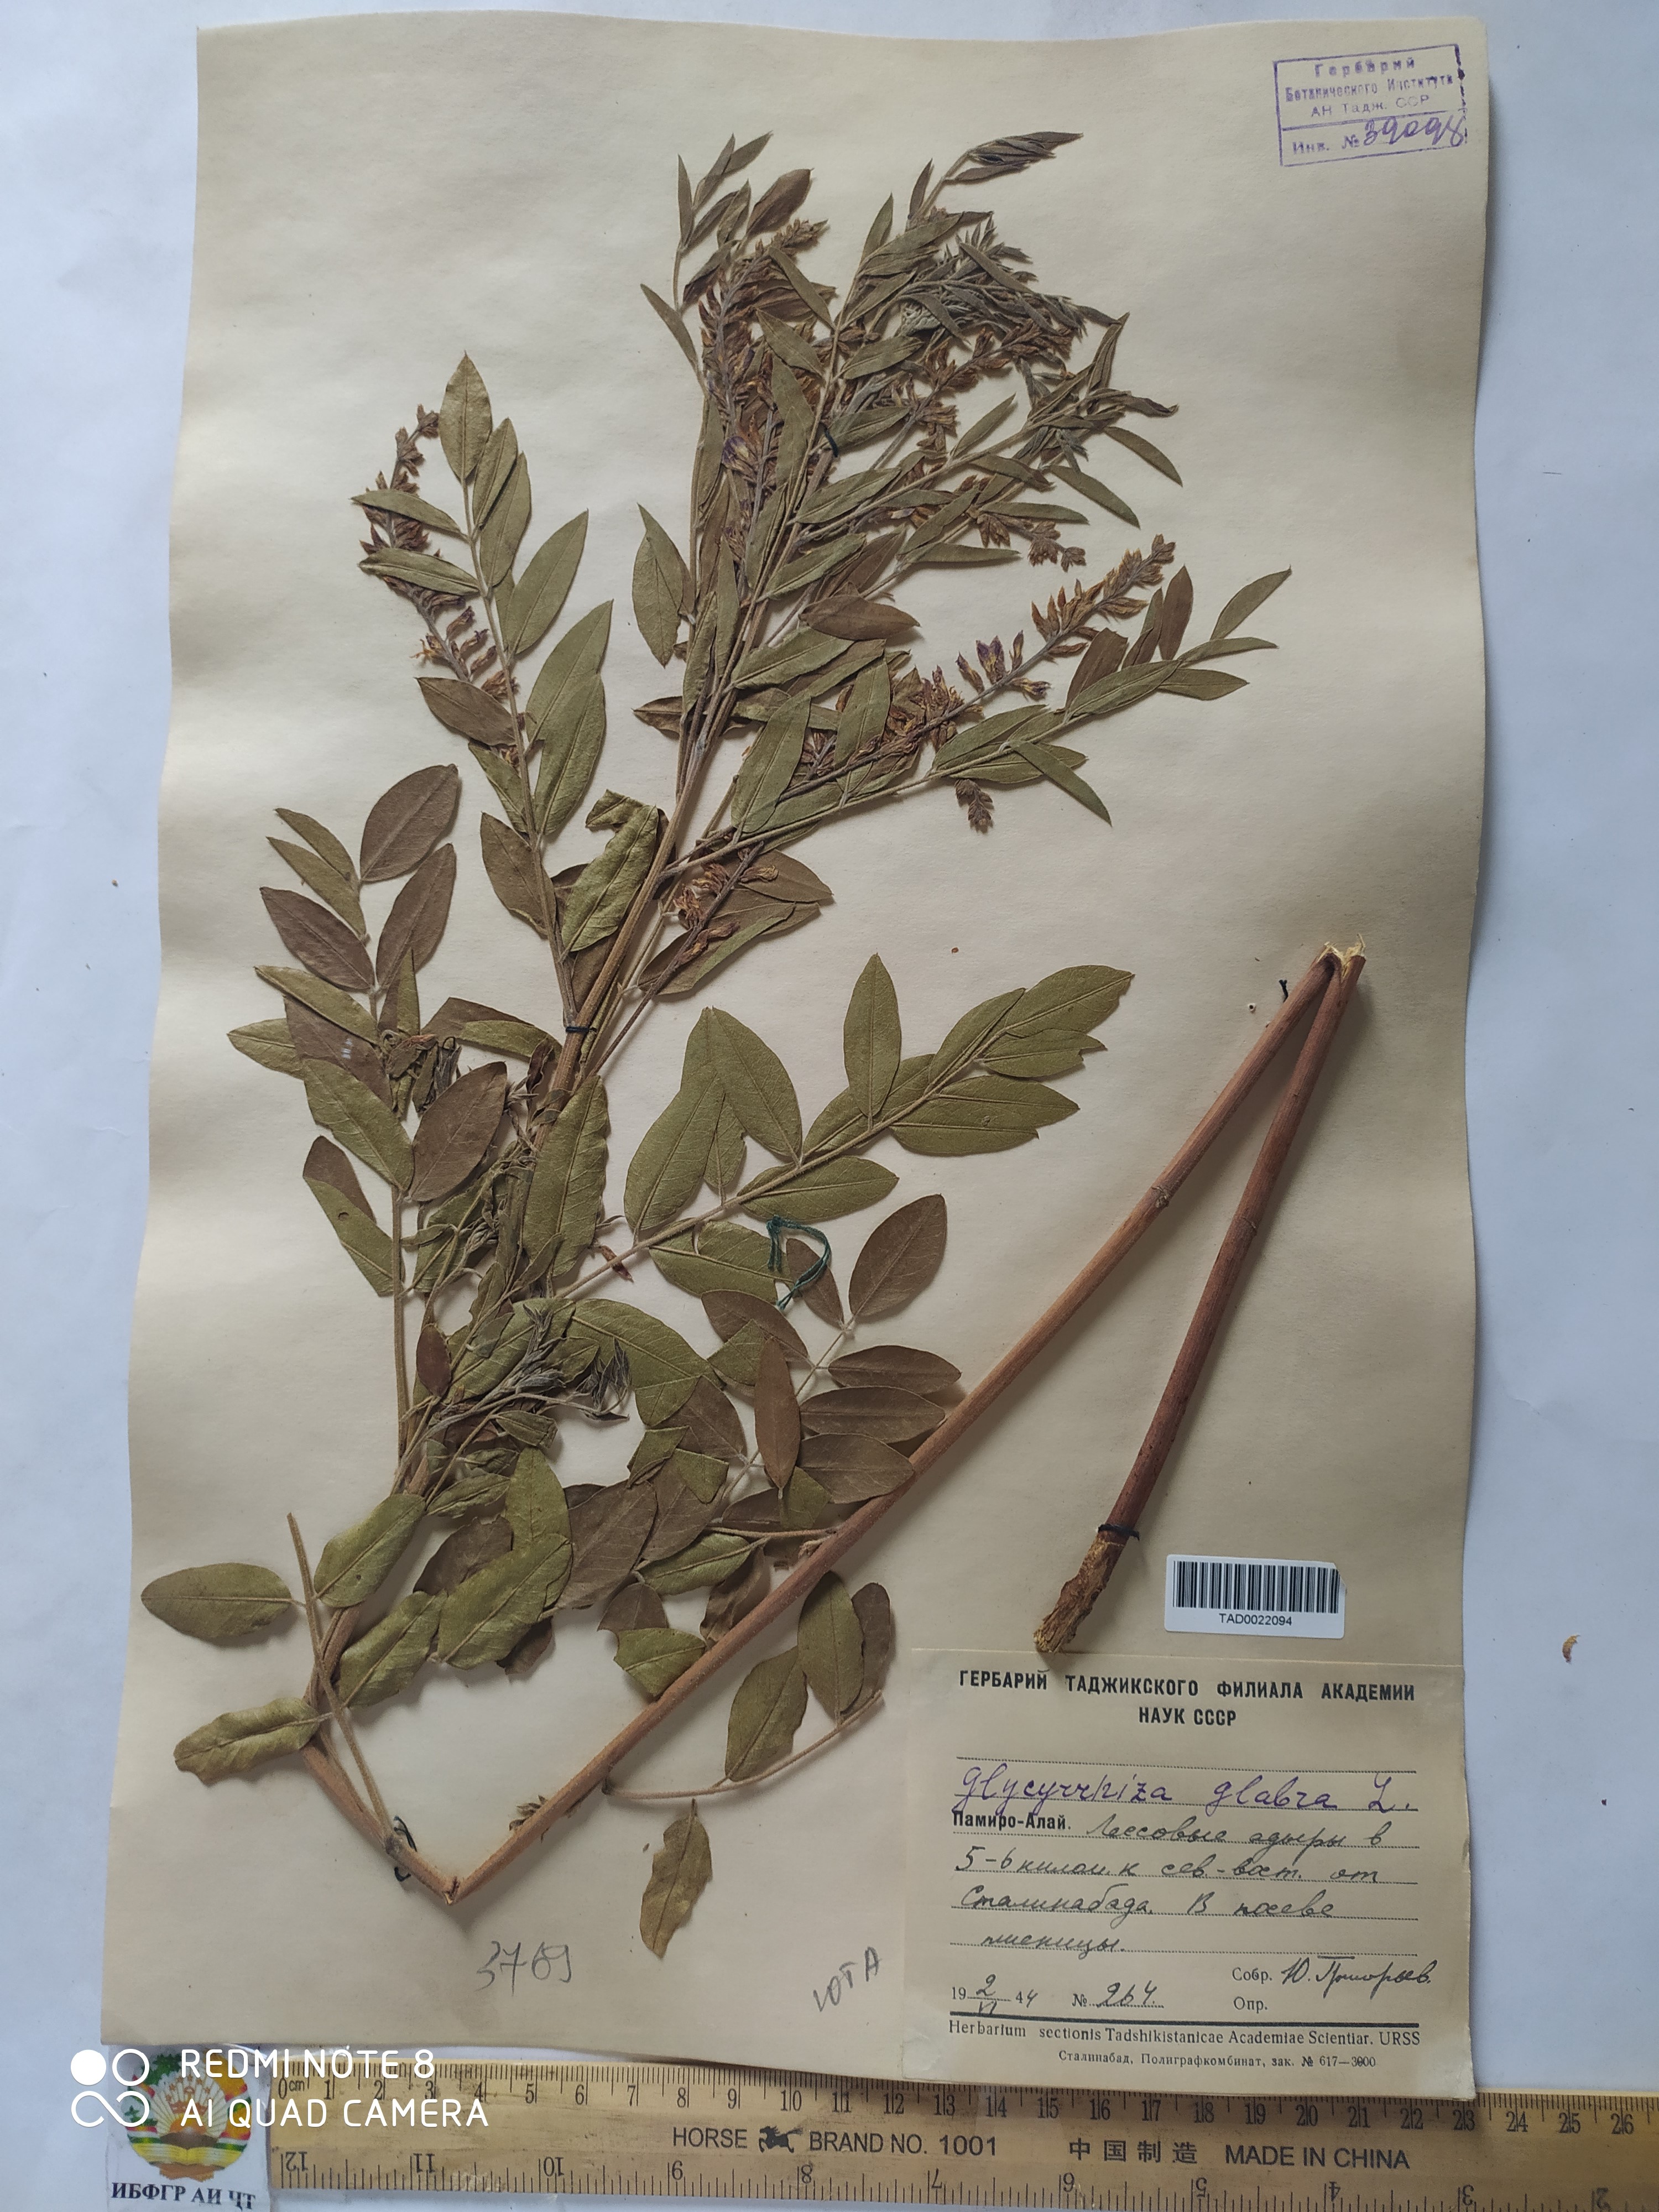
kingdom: Plantae
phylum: Tracheophyta
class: Magnoliopsida
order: Fabales
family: Fabaceae
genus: Glycyrrhiza
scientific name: Glycyrrhiza glabra
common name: Liquorice
